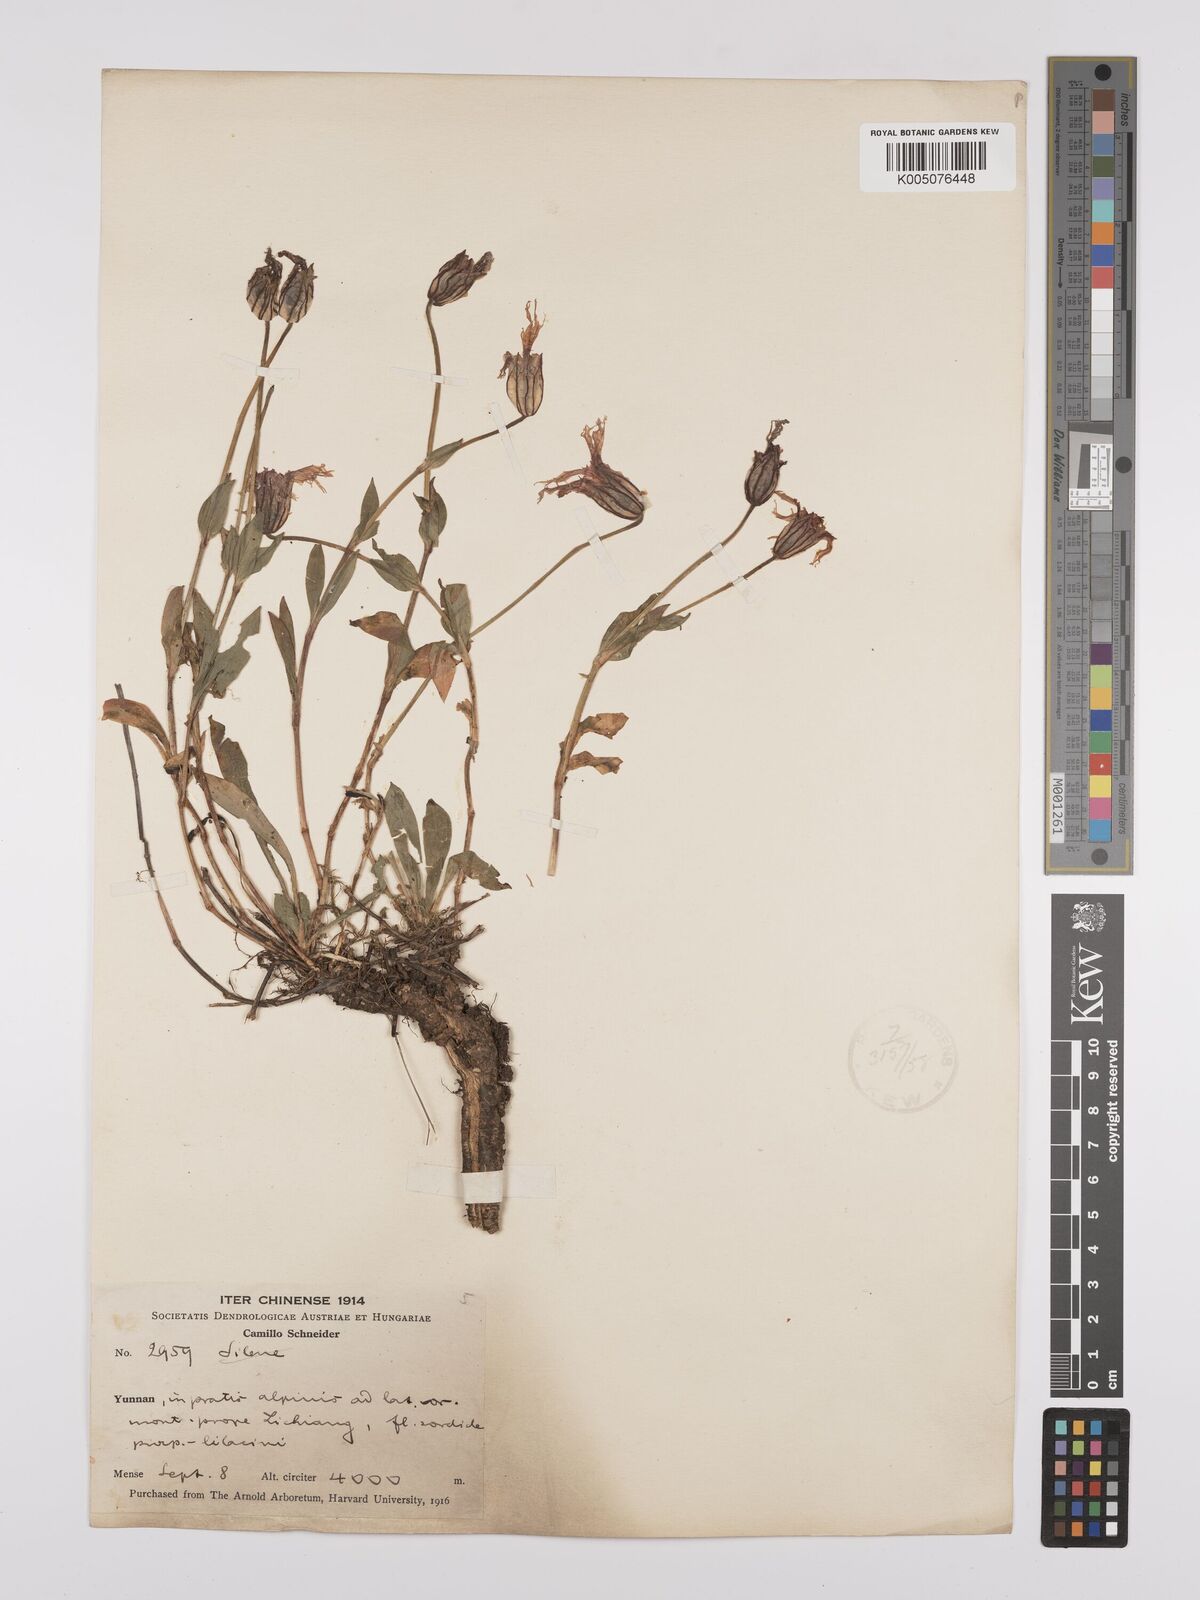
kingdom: Plantae
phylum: Tracheophyta
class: Magnoliopsida
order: Caryophyllales
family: Caryophyllaceae
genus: Silene
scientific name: Silene
